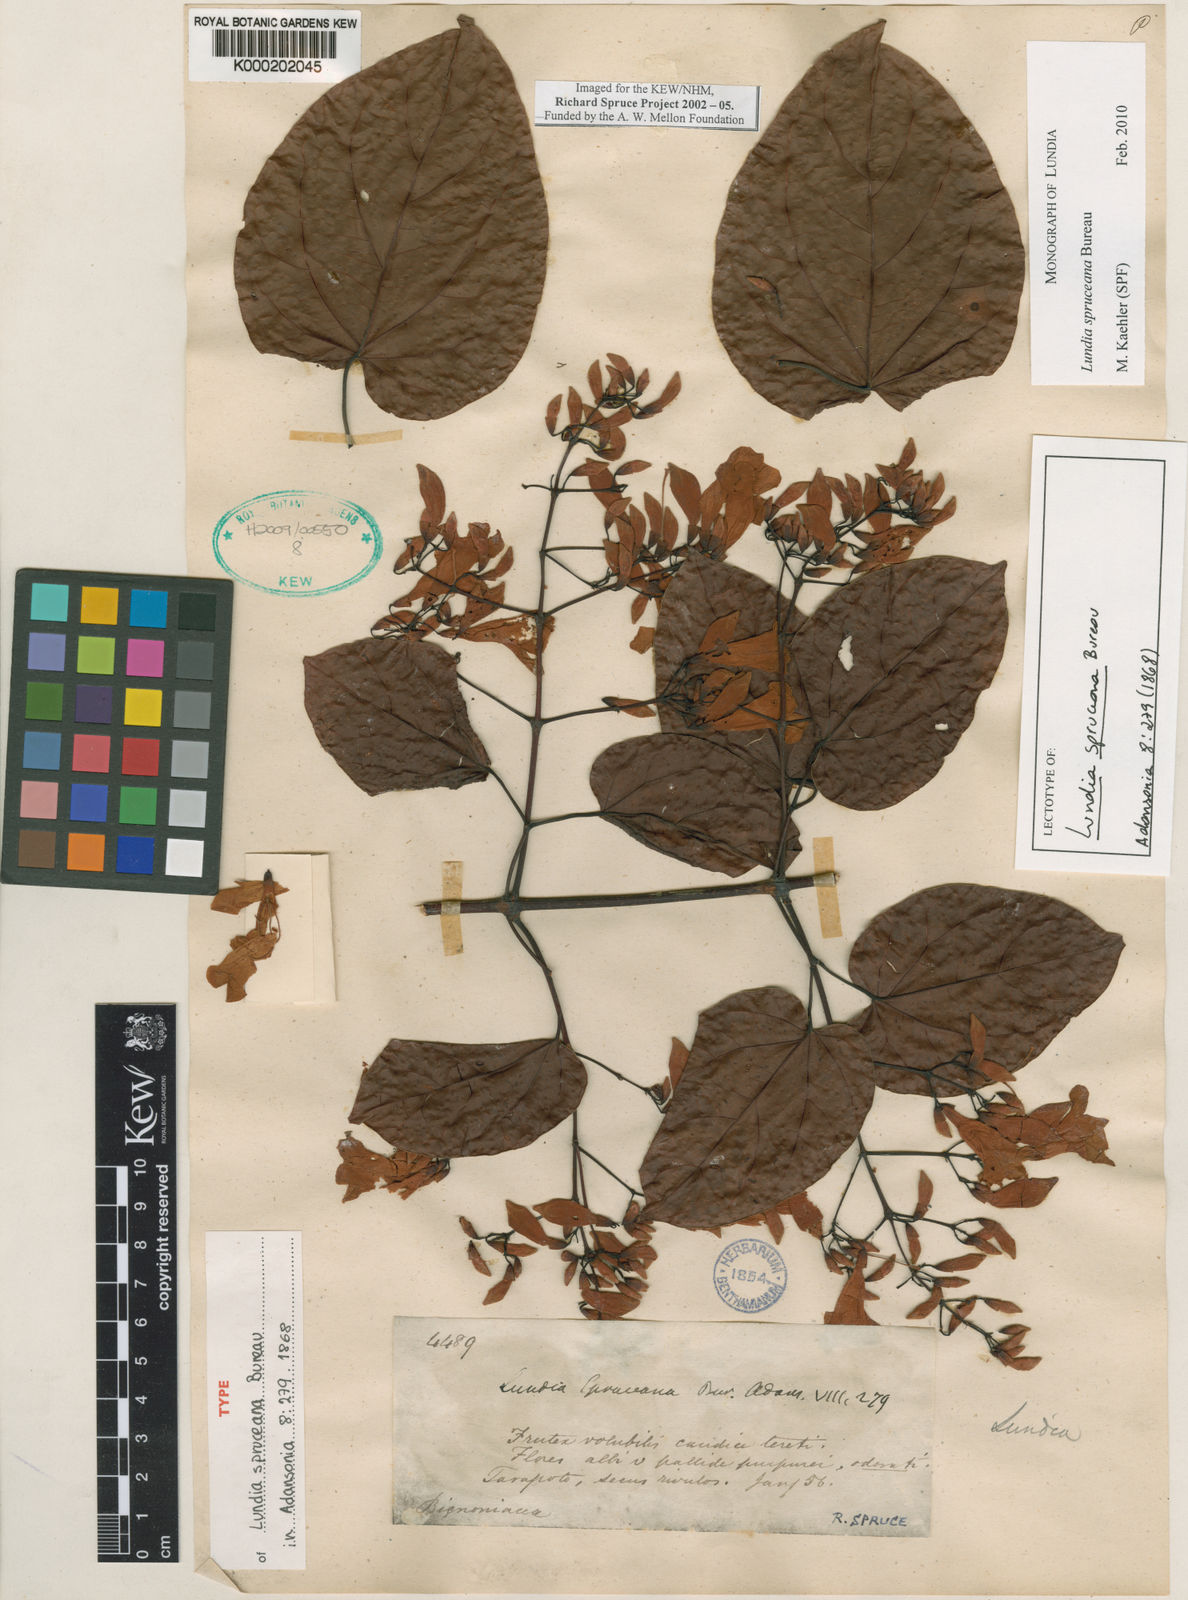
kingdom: Plantae
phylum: Tracheophyta
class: Magnoliopsida
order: Lamiales
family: Bignoniaceae
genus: Lundia
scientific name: Lundia spruceana
